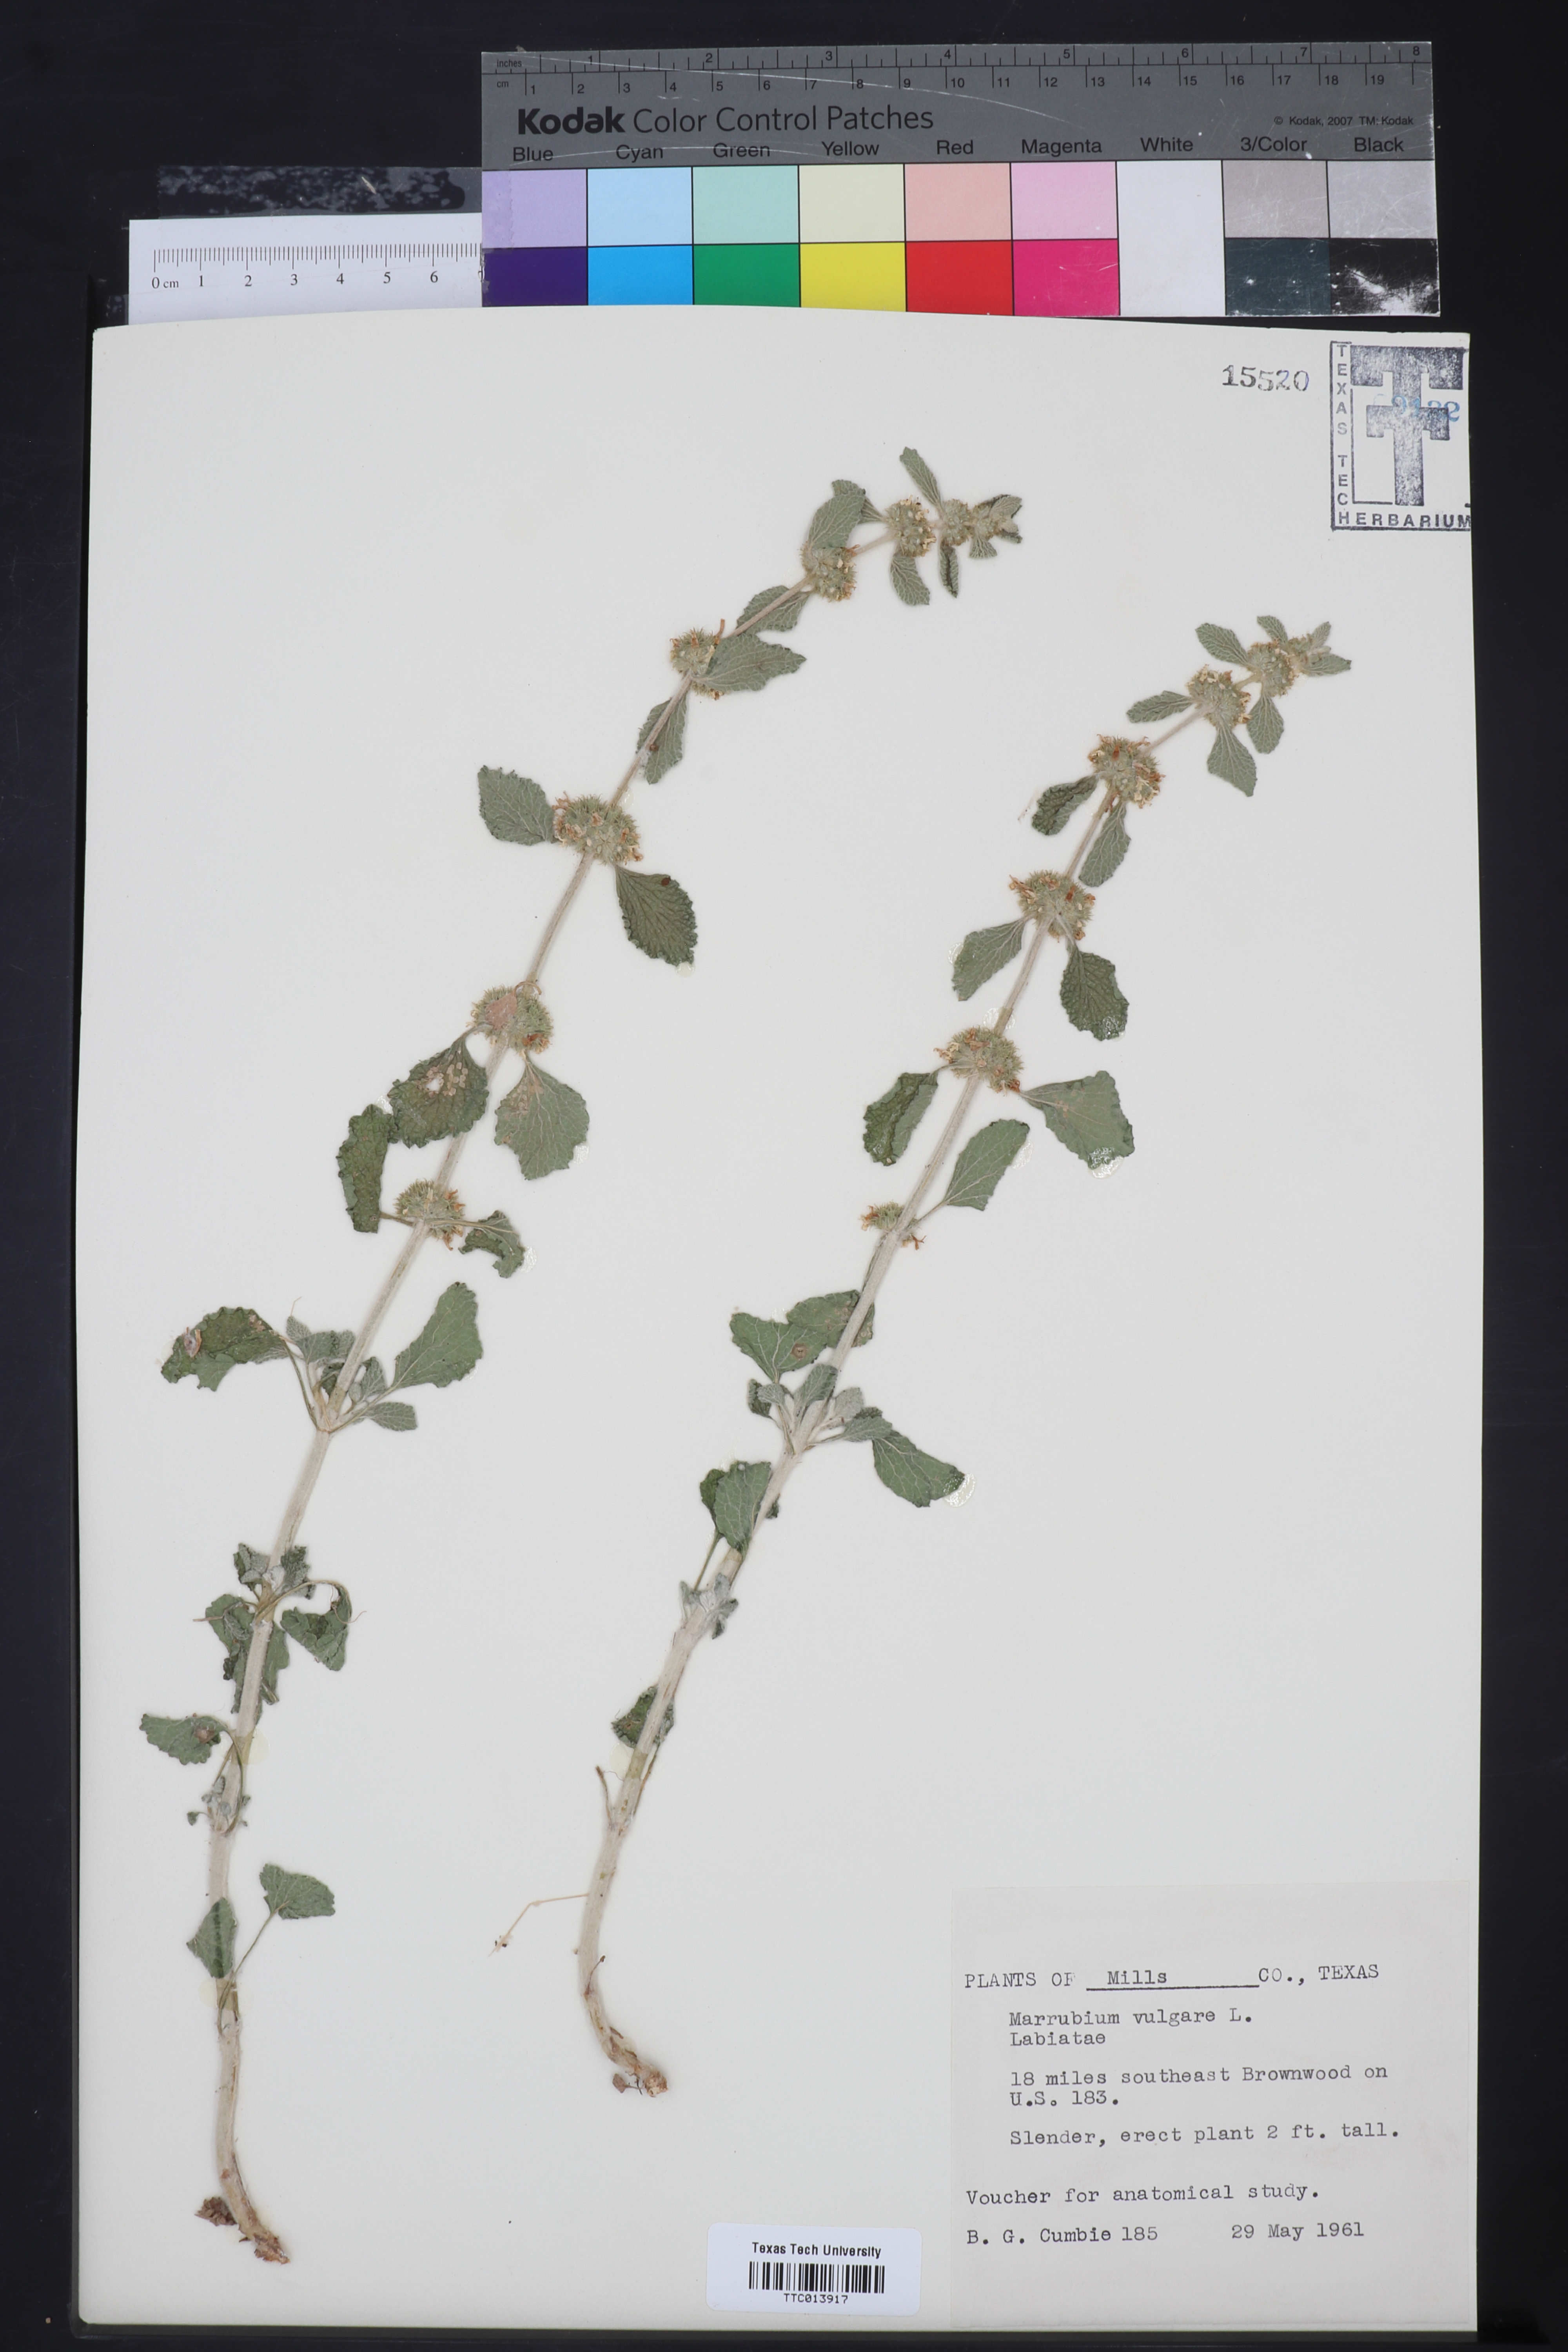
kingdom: Plantae
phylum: Tracheophyta
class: Magnoliopsida
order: Lamiales
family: Lamiaceae
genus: Marrubium
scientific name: Marrubium vulgare
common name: Horehound
